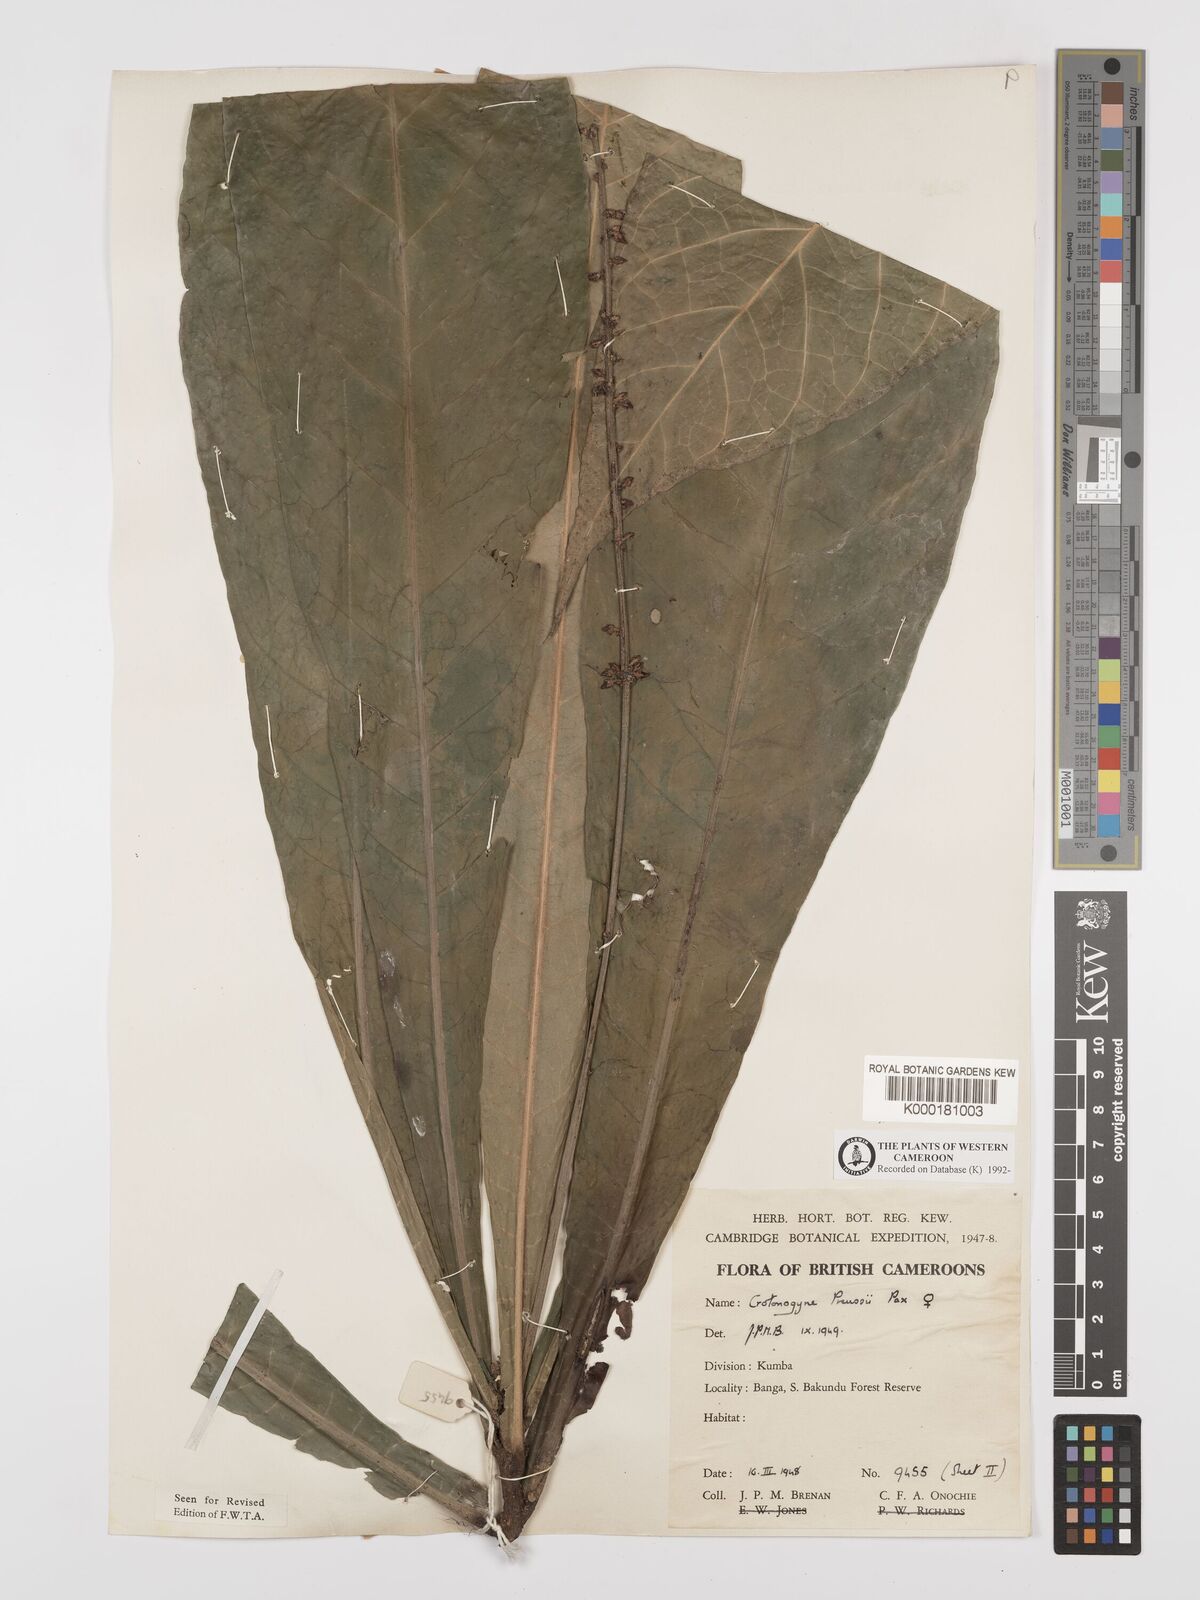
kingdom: Plantae
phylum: Tracheophyta
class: Magnoliopsida
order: Malpighiales
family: Euphorbiaceae
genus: Crotonogyne
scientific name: Crotonogyne preussii
